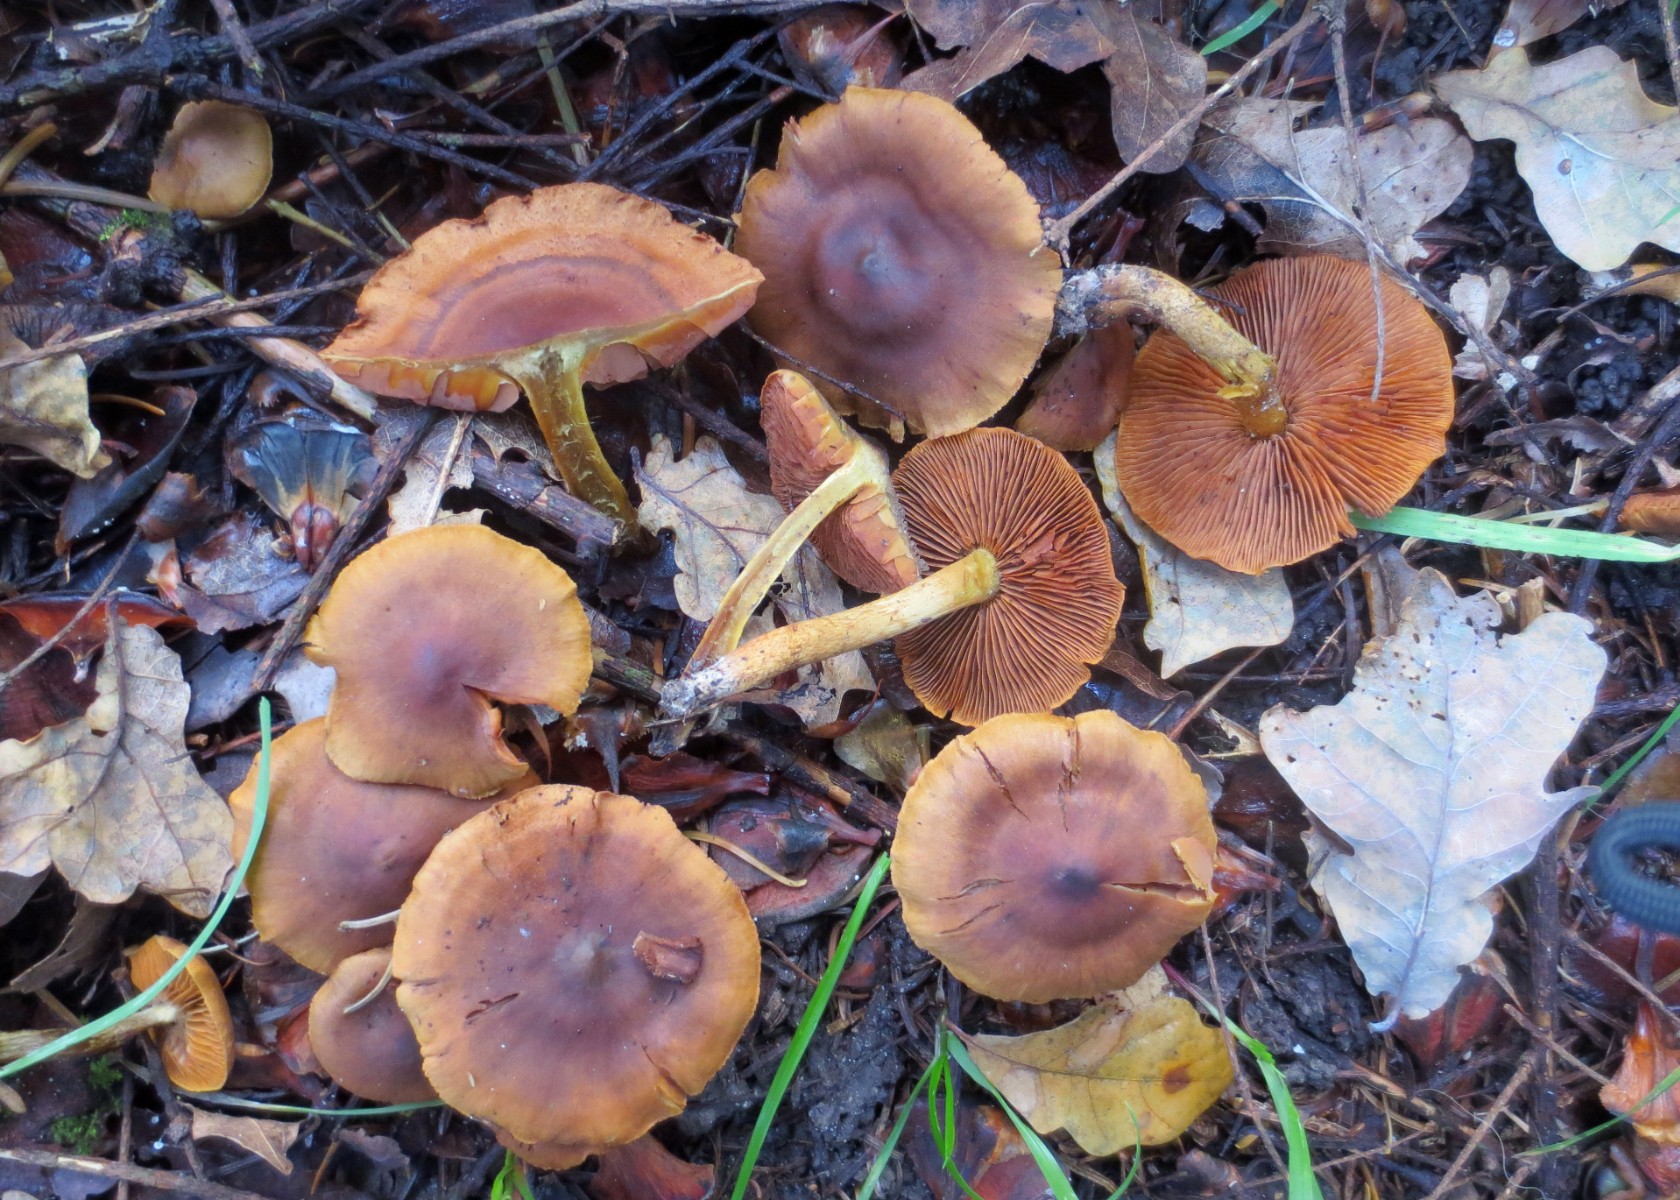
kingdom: Fungi
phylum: Basidiomycota
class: Agaricomycetes
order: Agaricales
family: Cortinariaceae
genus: Cortinarius
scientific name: Cortinarius cinnamomeus
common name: kanel-slørhat
